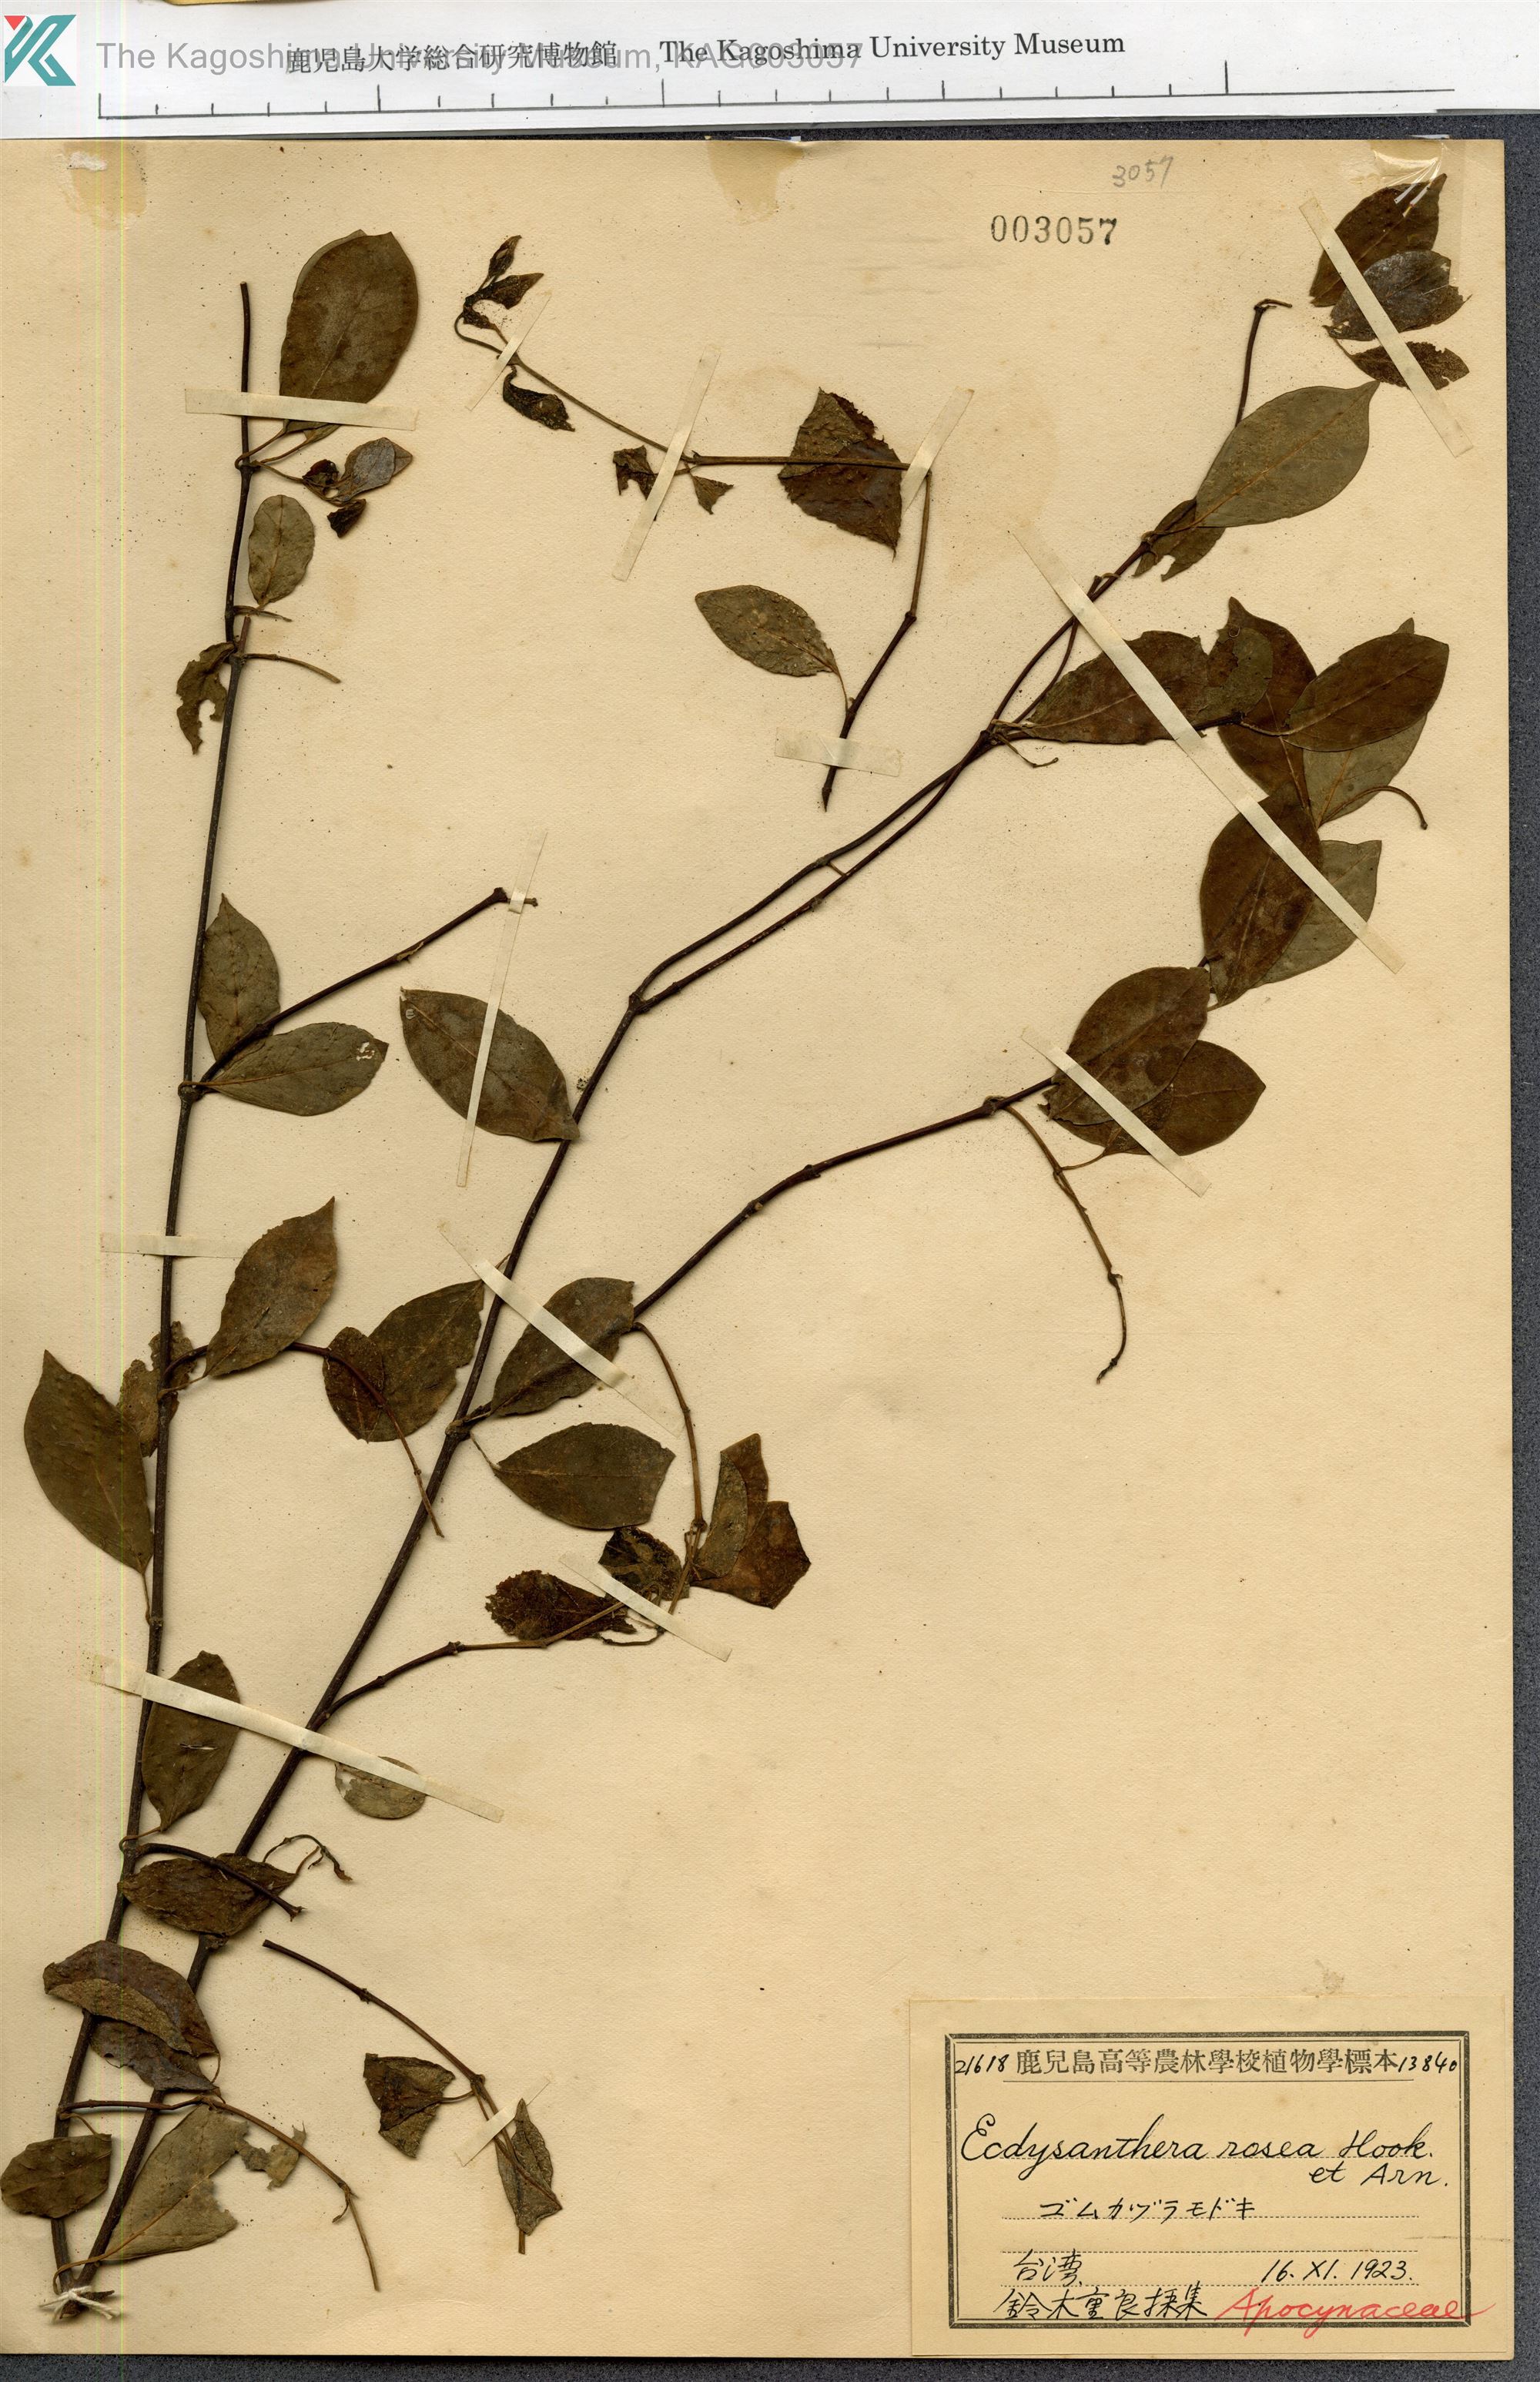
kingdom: Plantae
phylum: Tracheophyta
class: Magnoliopsida
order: Gentianales
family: Apocynaceae
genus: Urceola
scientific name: Urceola rosea
